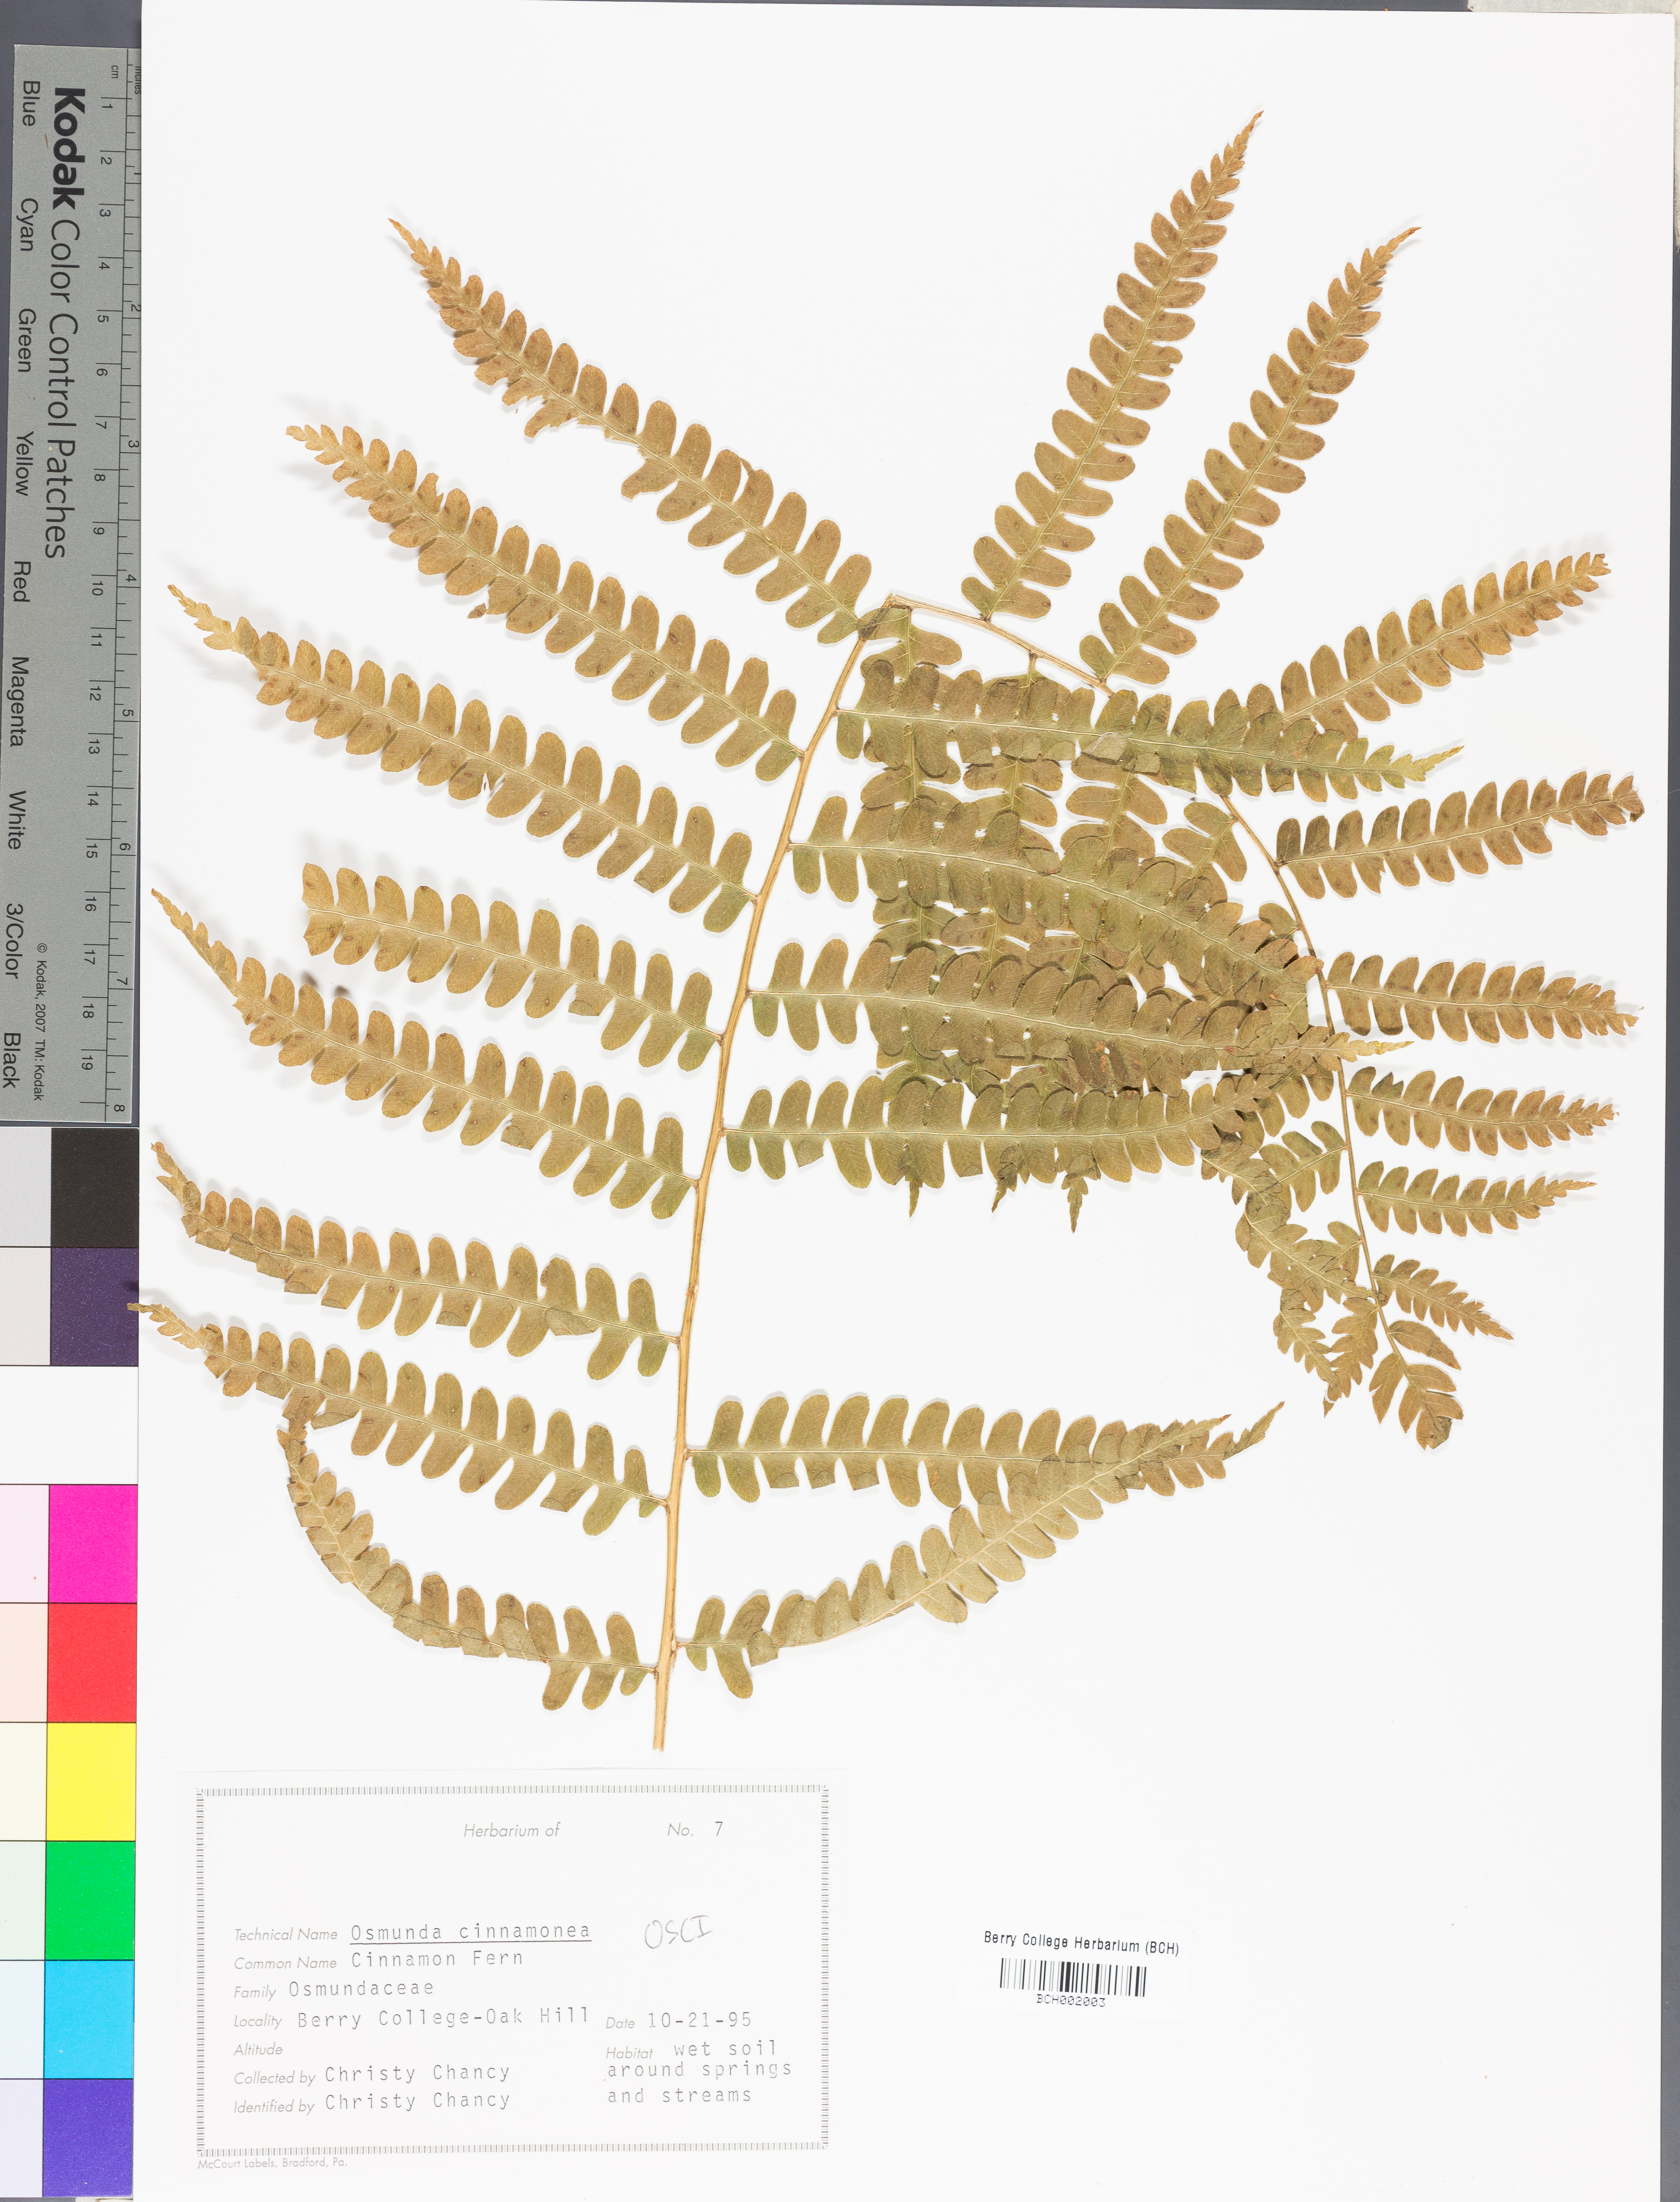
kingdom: Plantae
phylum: Tracheophyta
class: Polypodiopsida
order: Osmundales
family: Osmundaceae
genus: Osmundastrum
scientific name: Osmundastrum cinnamomeum
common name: Cinnamon fern
